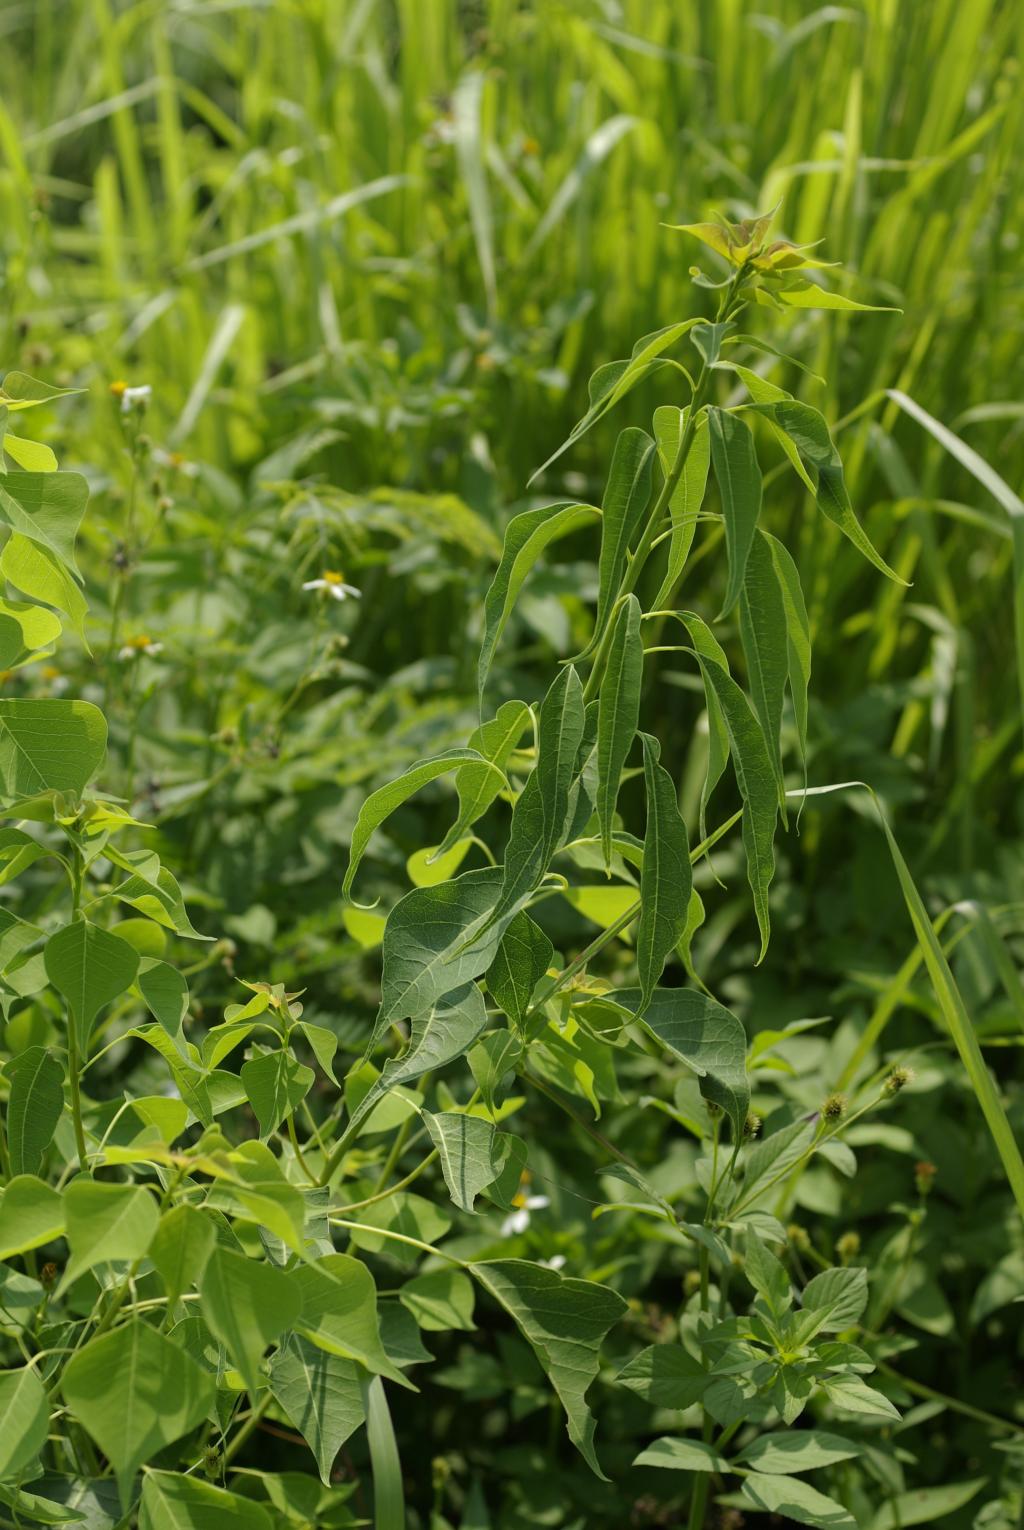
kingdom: Plantae
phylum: Tracheophyta
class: Magnoliopsida
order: Malpighiales
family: Euphorbiaceae
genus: Triadica
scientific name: Triadica sebifera
